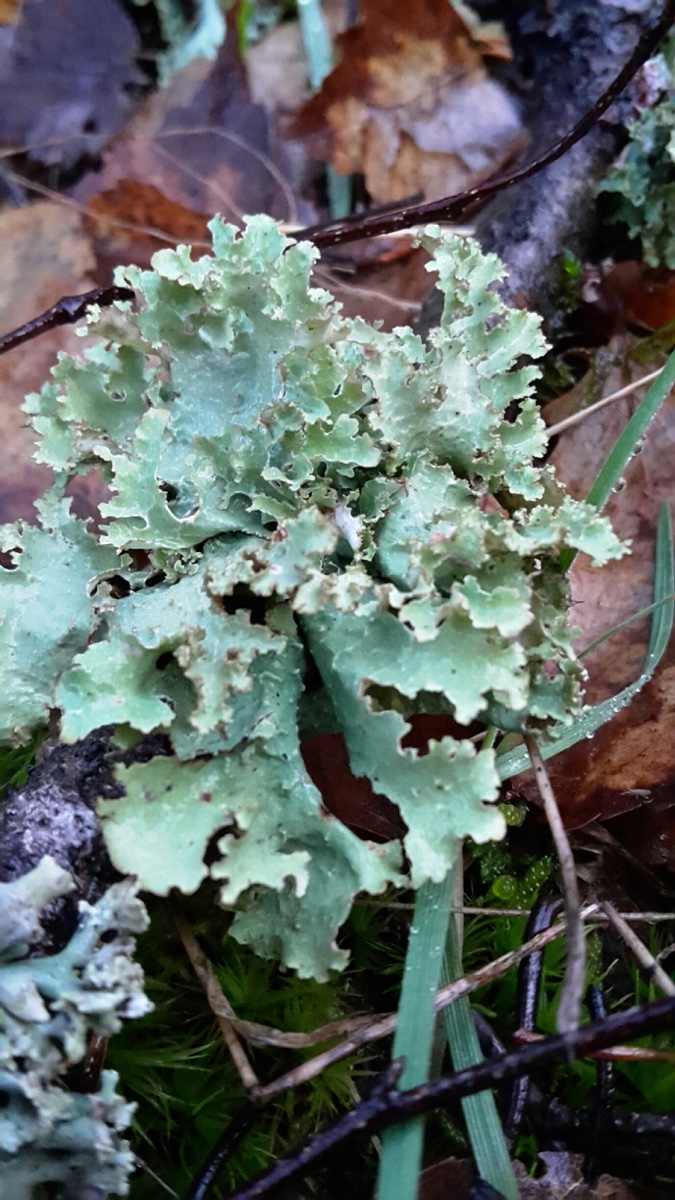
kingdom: Fungi
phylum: Ascomycota
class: Lecanoromycetes
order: Lecanorales
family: Parmeliaceae
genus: Platismatia
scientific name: Platismatia glauca
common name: blågrå papirlav
